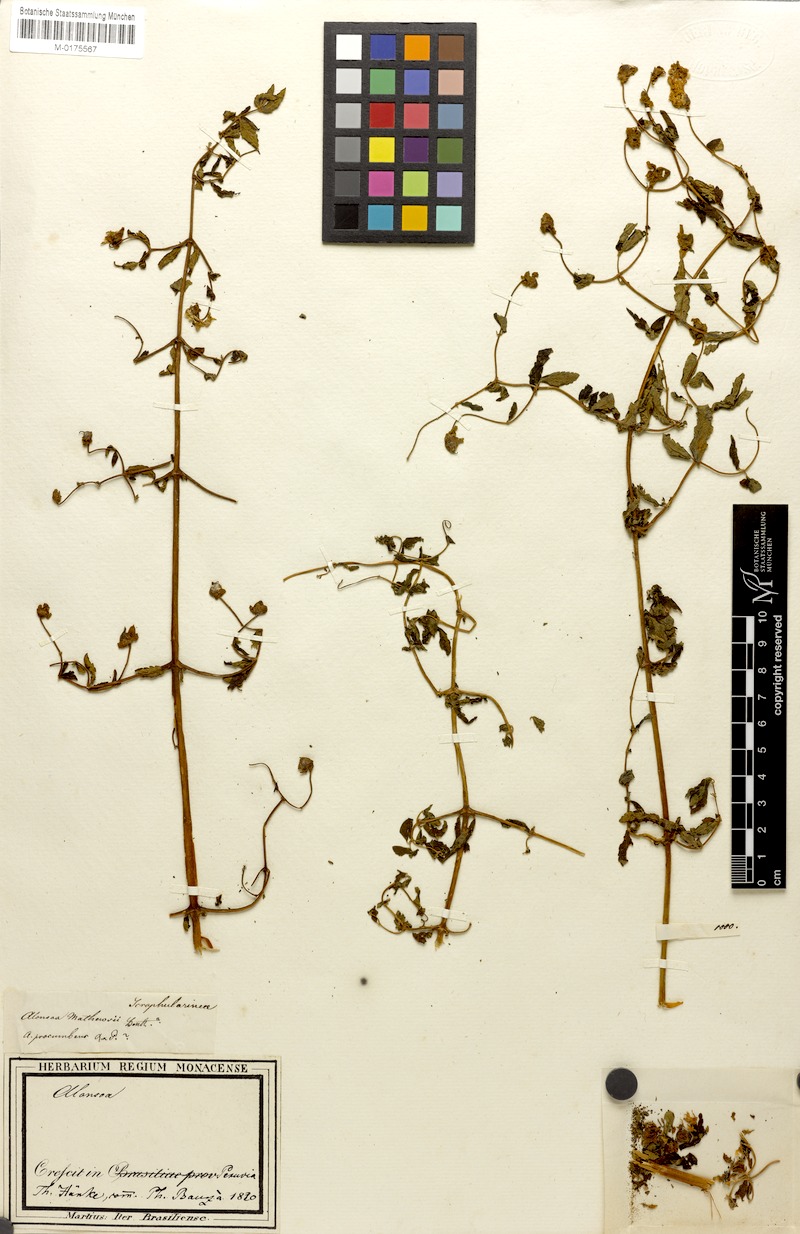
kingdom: Plantae
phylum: Tracheophyta
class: Magnoliopsida
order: Lamiales
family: Scrophulariaceae
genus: Alonsoa
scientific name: Alonsoa minor
